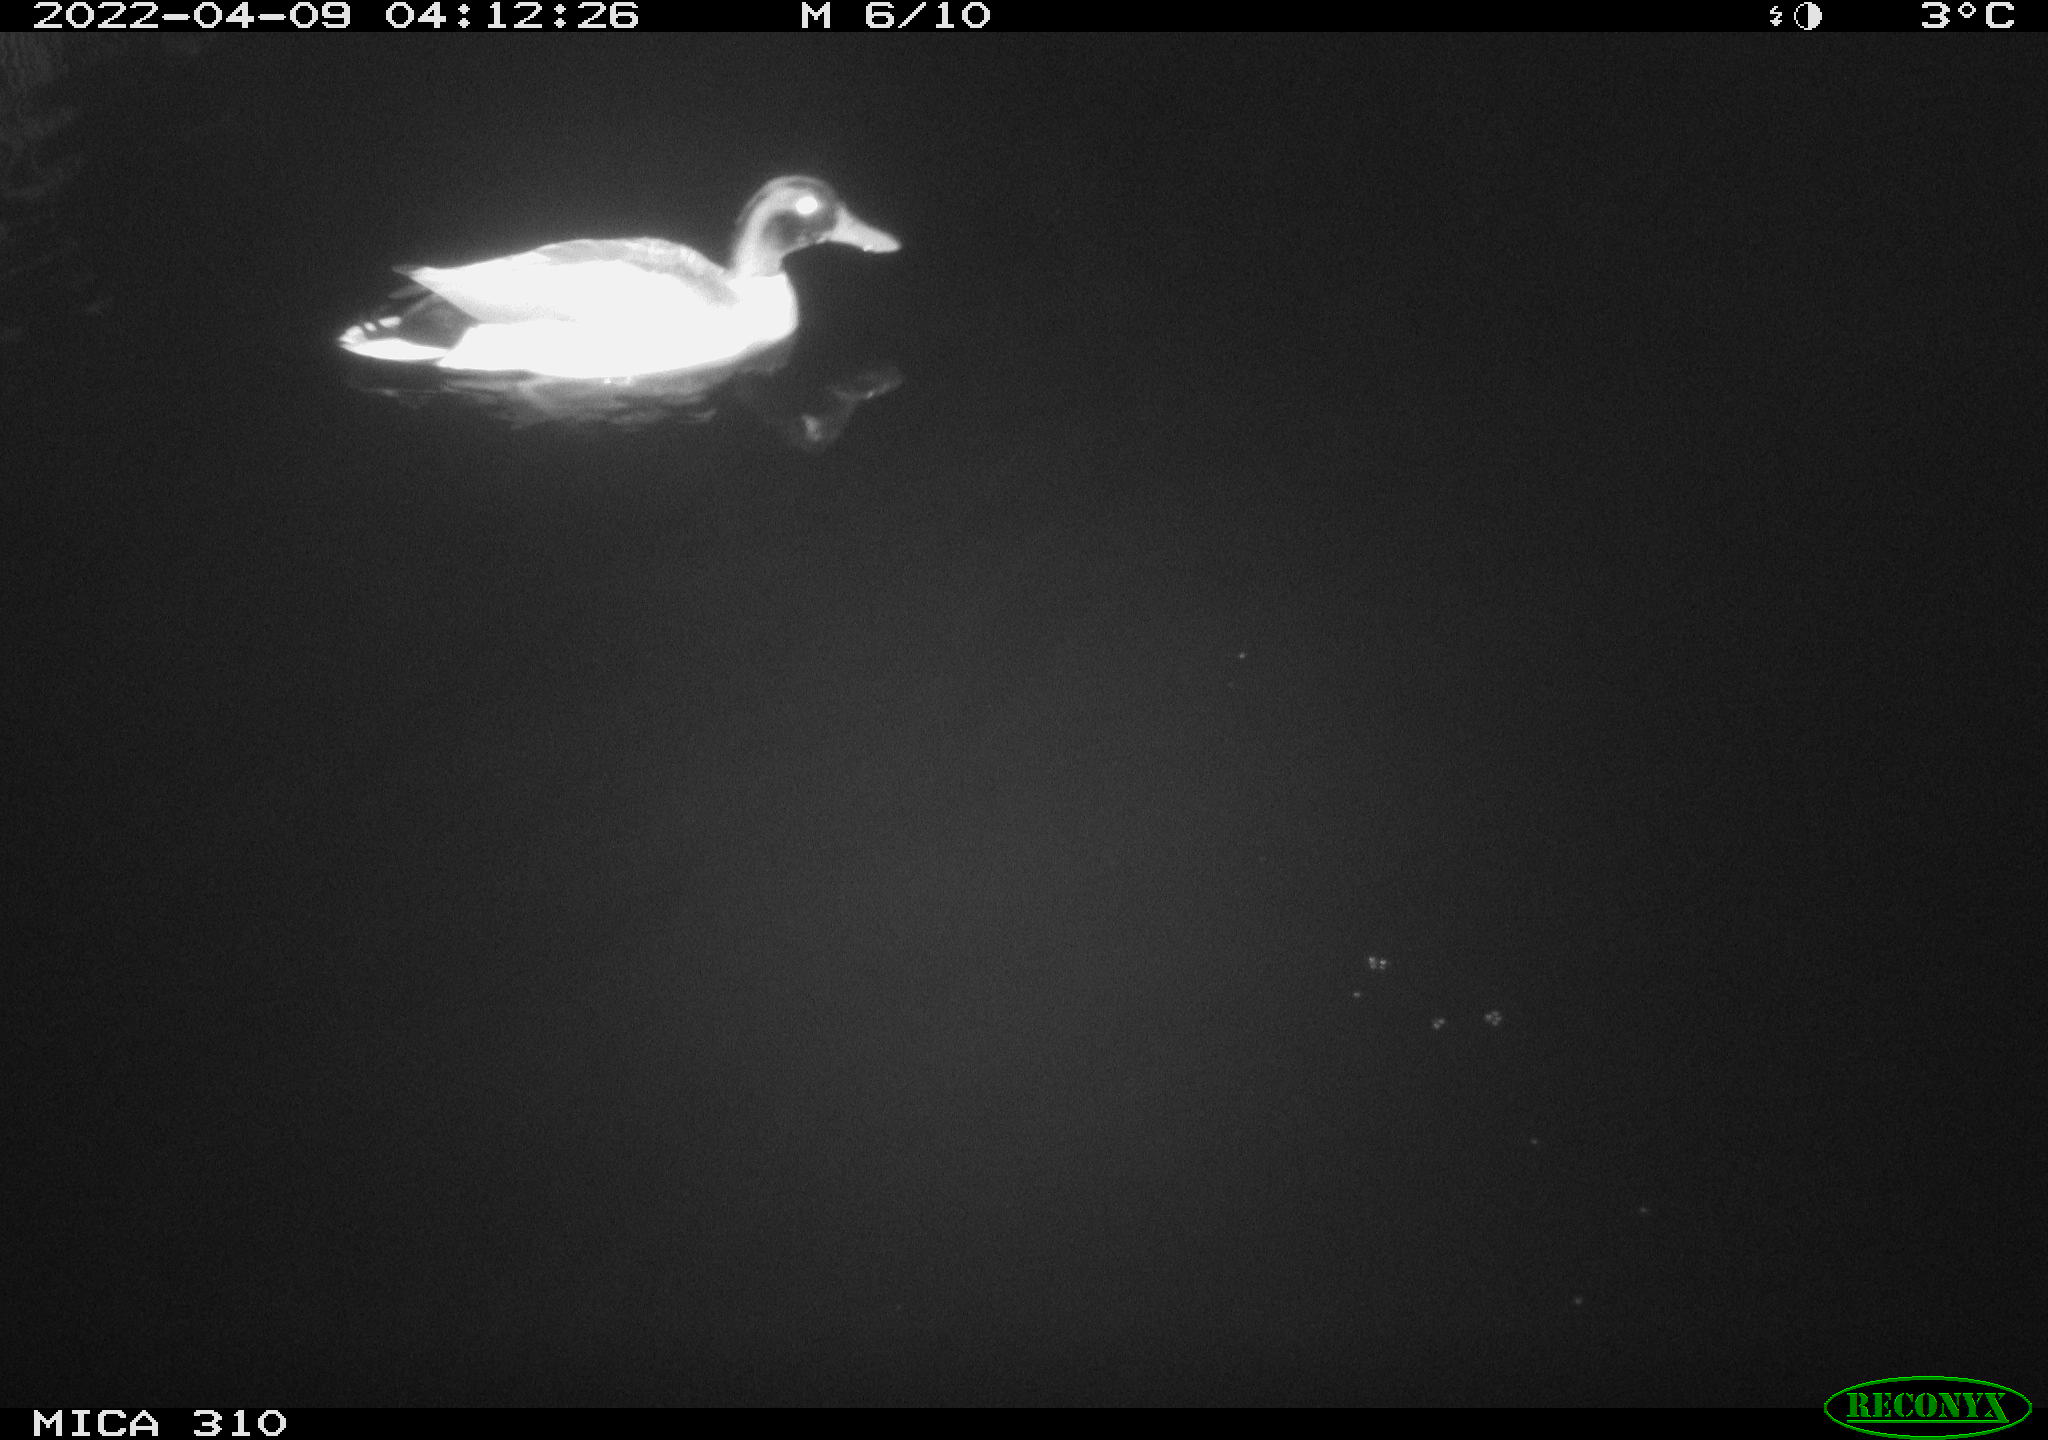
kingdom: Animalia
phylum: Chordata
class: Aves
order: Anseriformes
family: Anatidae
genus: Anas
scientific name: Anas platyrhynchos
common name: Mallard
